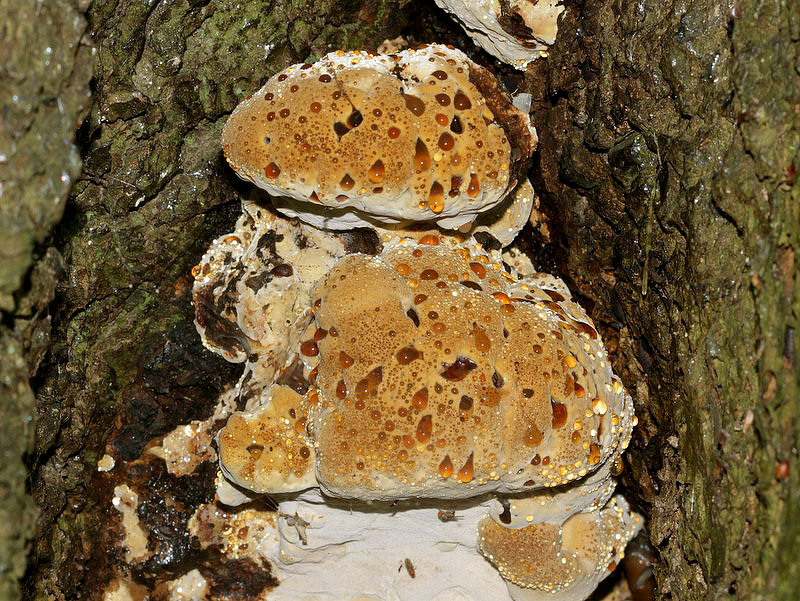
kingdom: Fungi
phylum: Basidiomycota
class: Agaricomycetes
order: Hymenochaetales
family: Hymenochaetaceae
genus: Pseudoinonotus
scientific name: Pseudoinonotus dryadeus
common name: ege-spejlporesvamp
